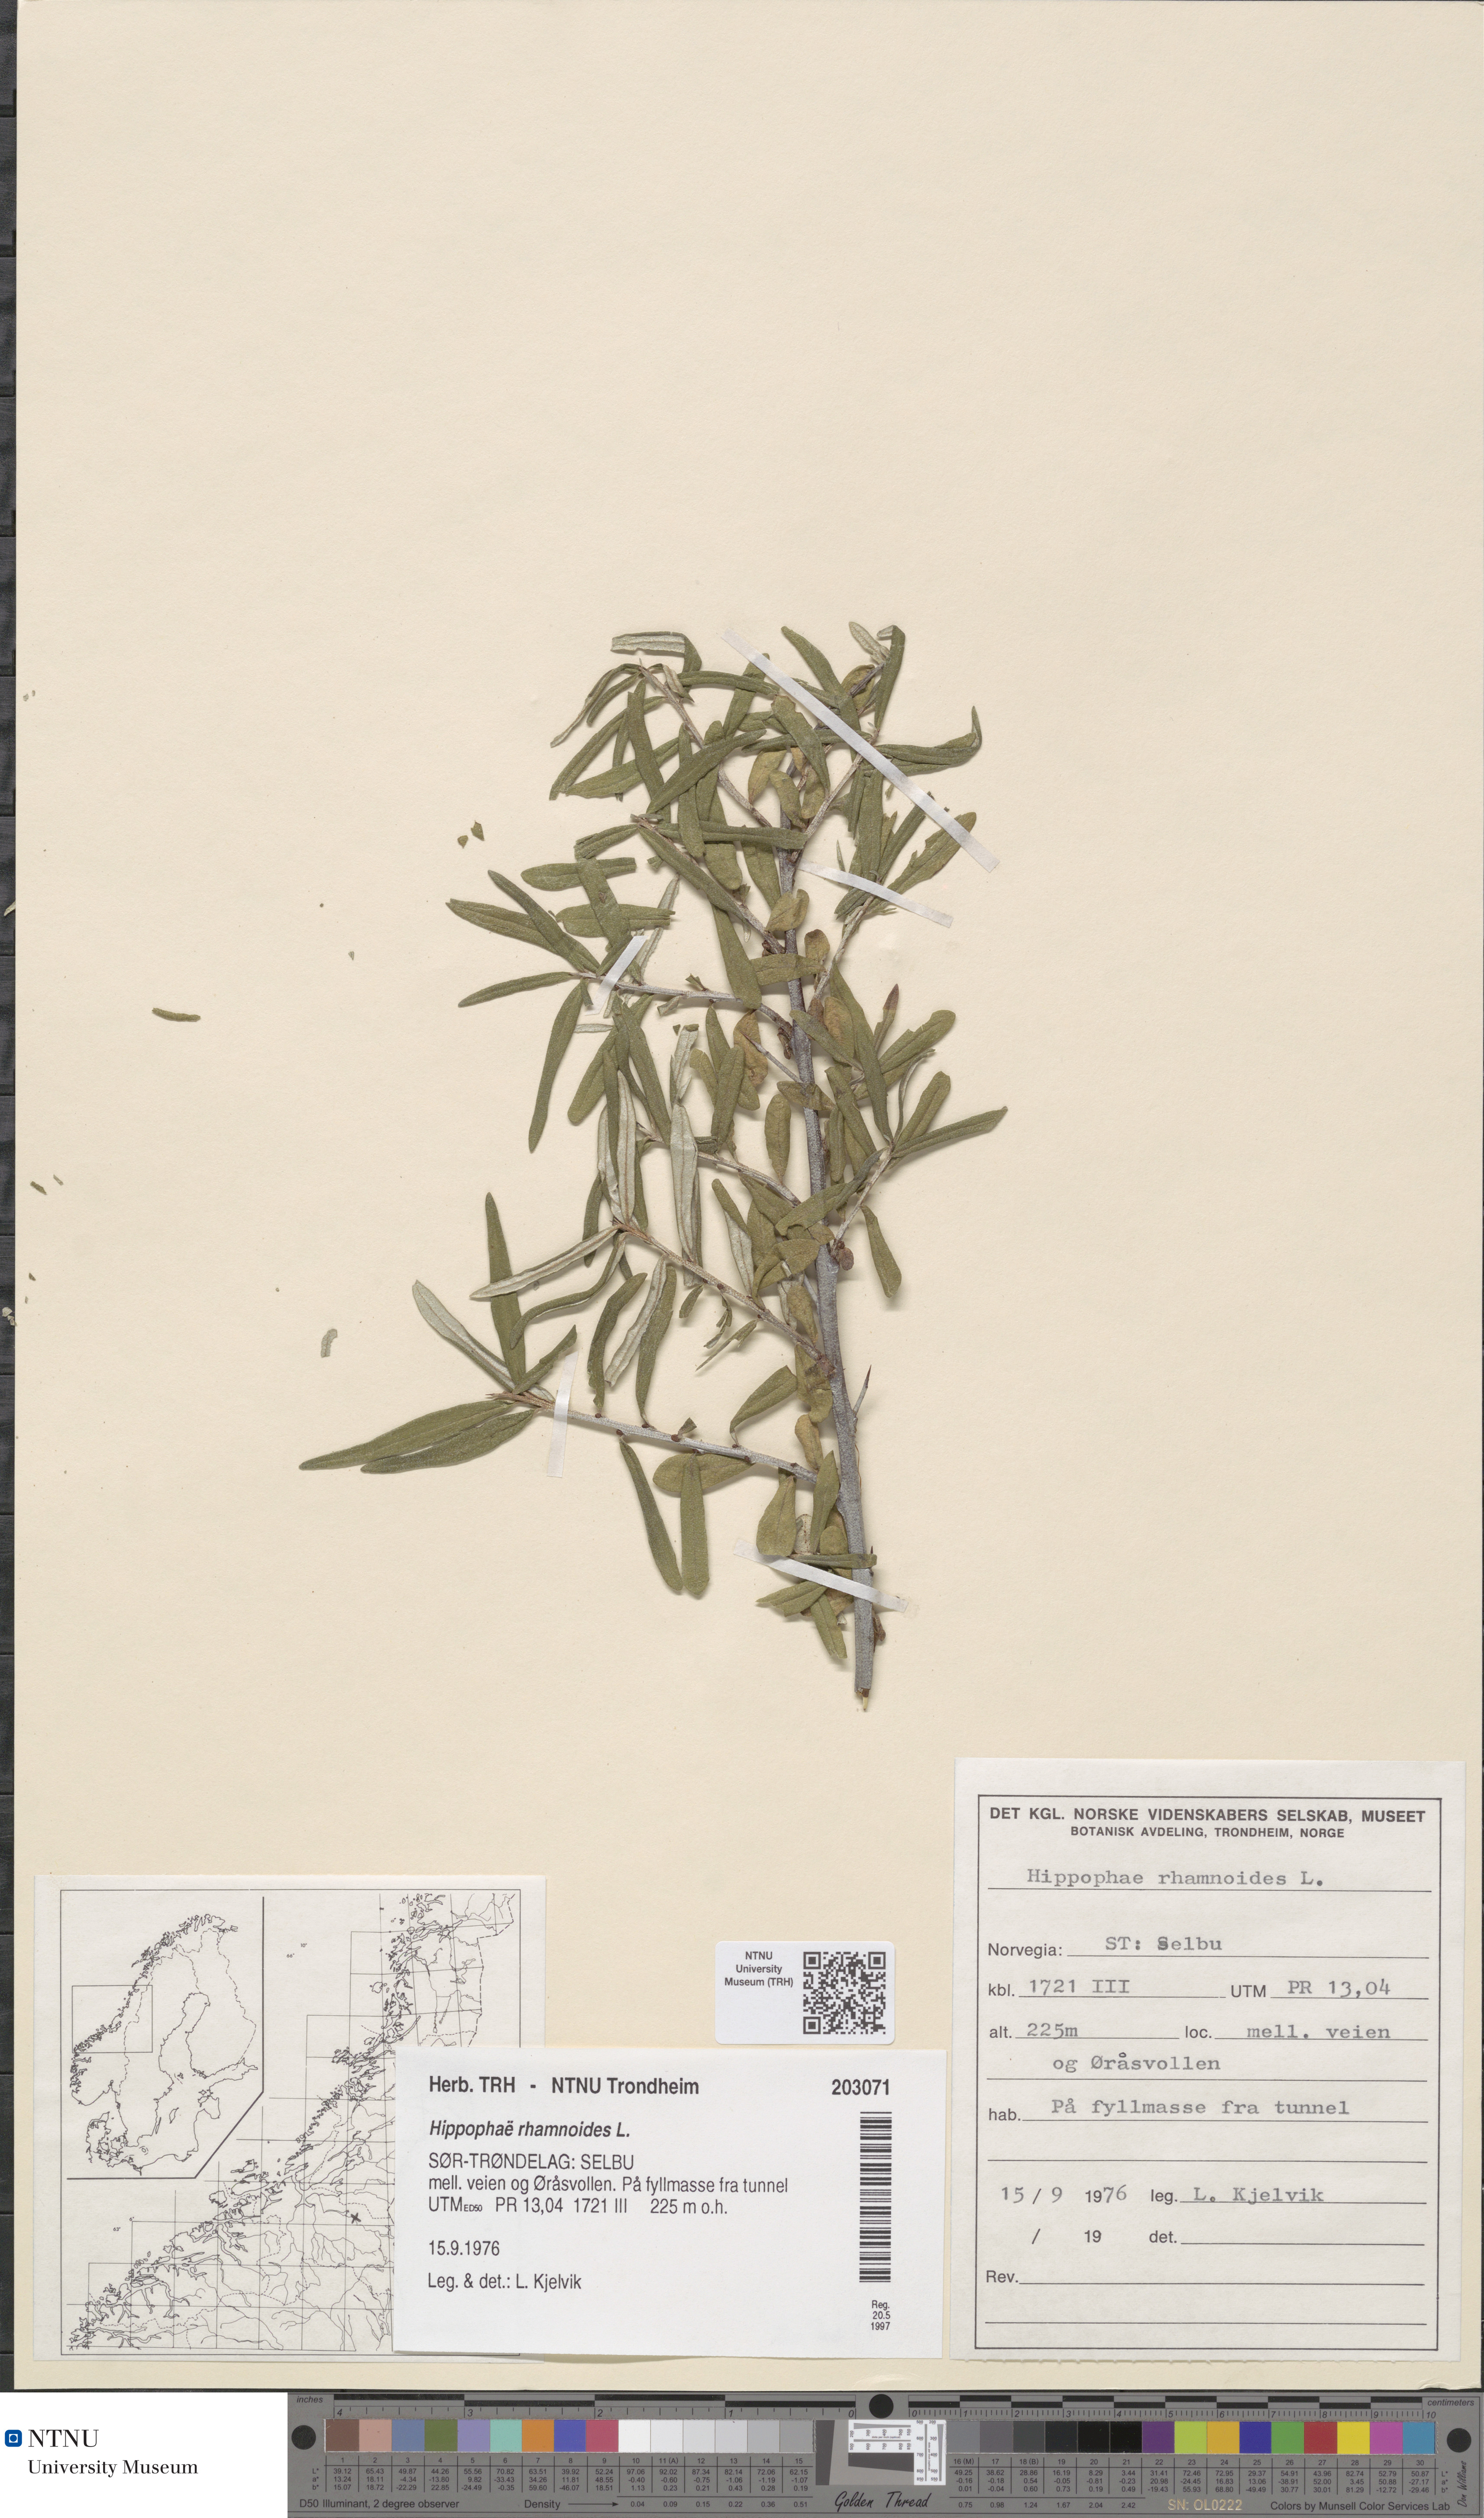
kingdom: Plantae
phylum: Tracheophyta
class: Magnoliopsida
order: Rosales
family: Elaeagnaceae
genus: Hippophae
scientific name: Hippophae rhamnoides
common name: Sea-buckthorn
